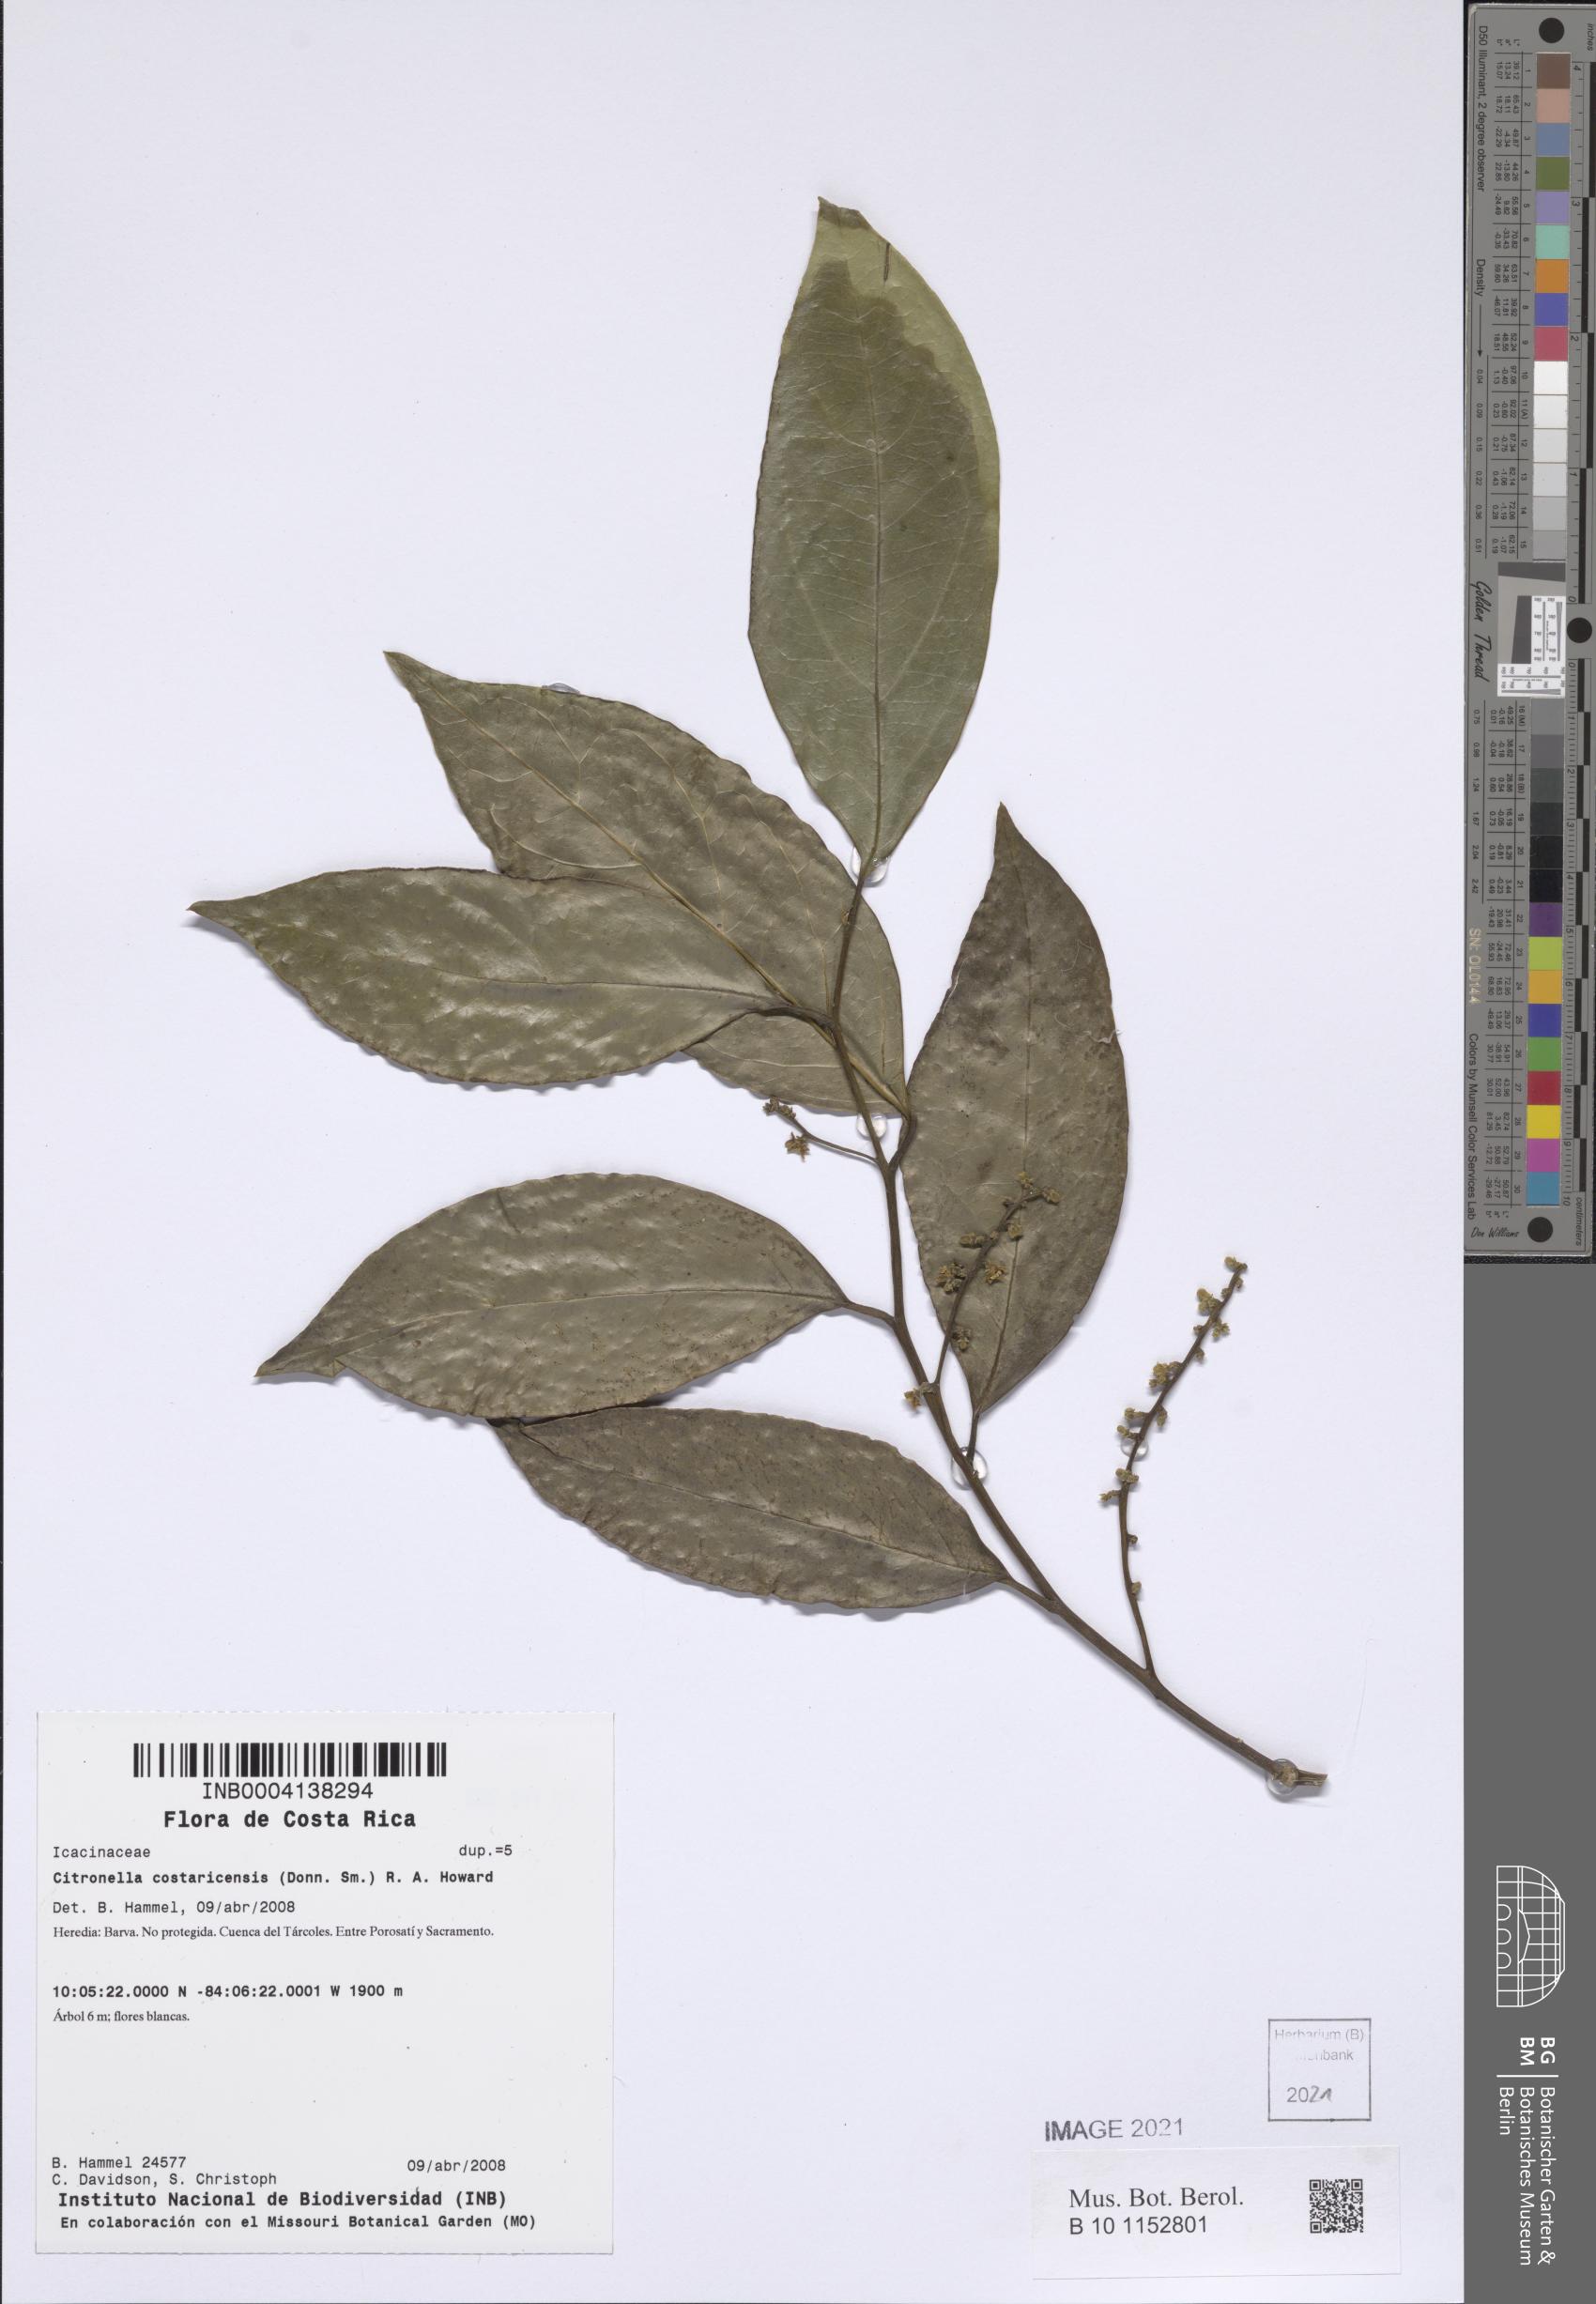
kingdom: Plantae
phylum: Tracheophyta
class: Magnoliopsida
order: Cardiopteridales
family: Cardiopteridaceae
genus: Citronella
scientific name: Citronella costaricensis
